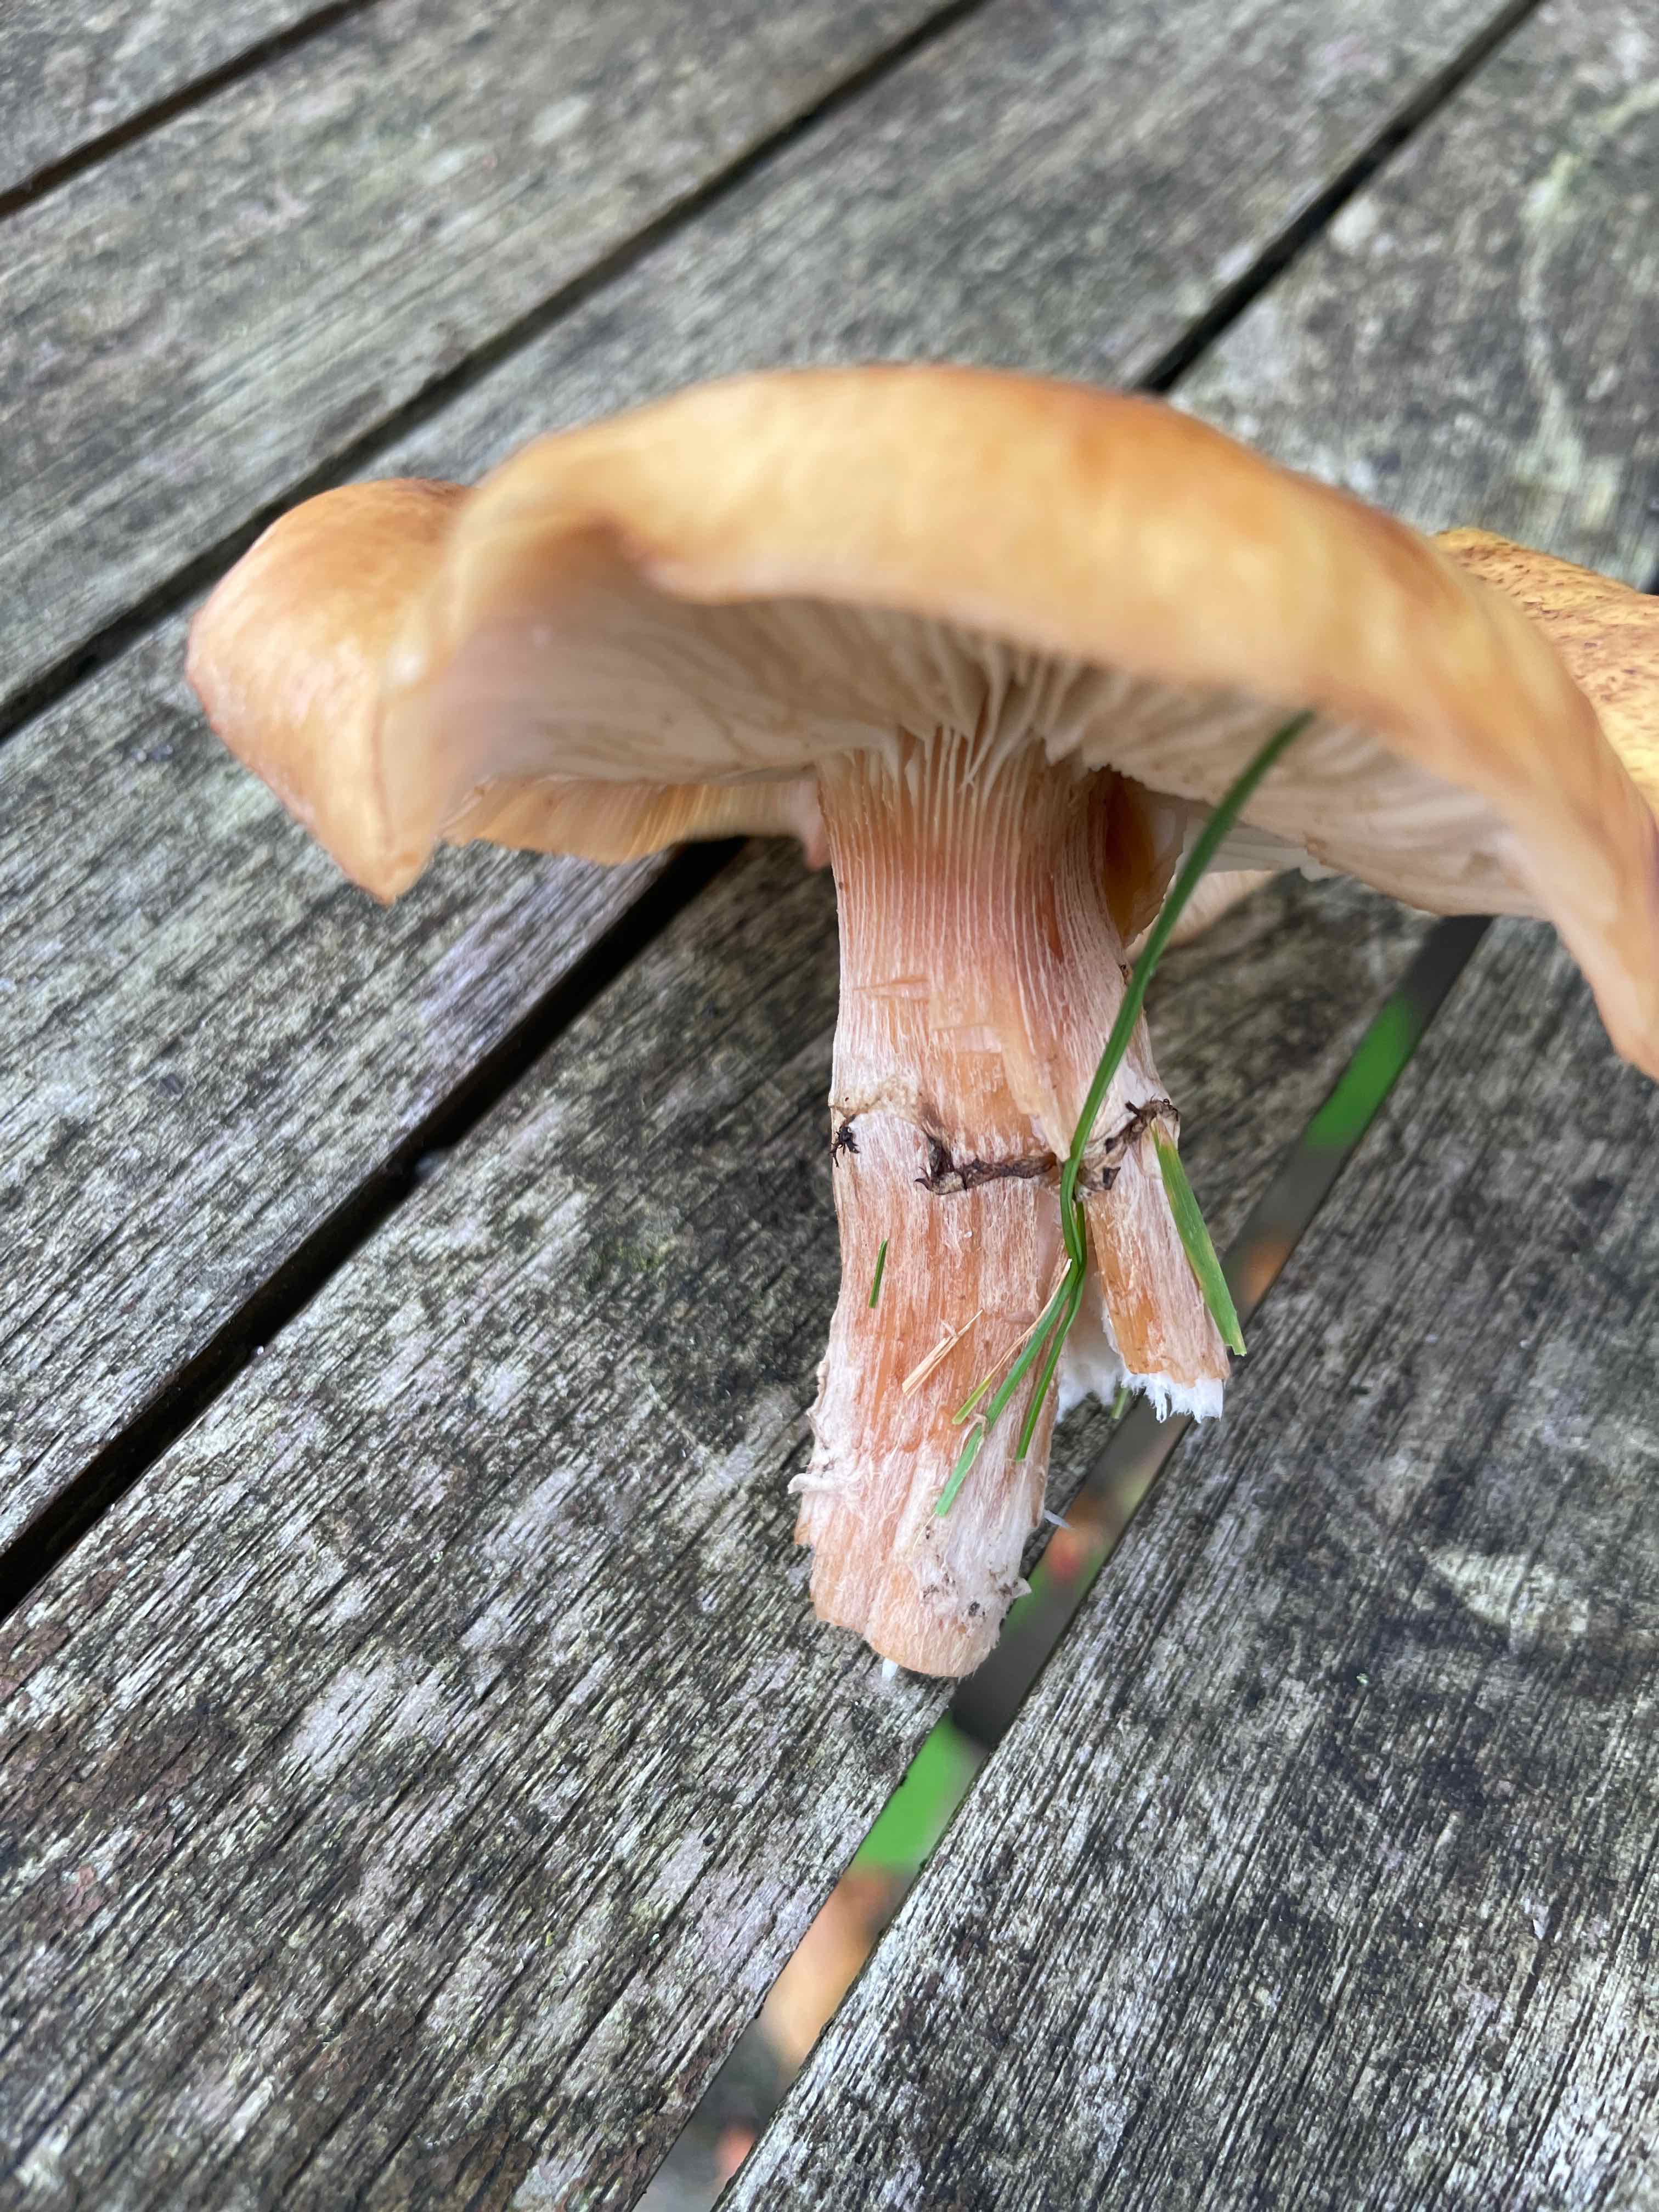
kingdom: Fungi
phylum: Basidiomycota
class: Agaricomycetes
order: Agaricales
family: Physalacriaceae
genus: Armillaria
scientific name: Armillaria
